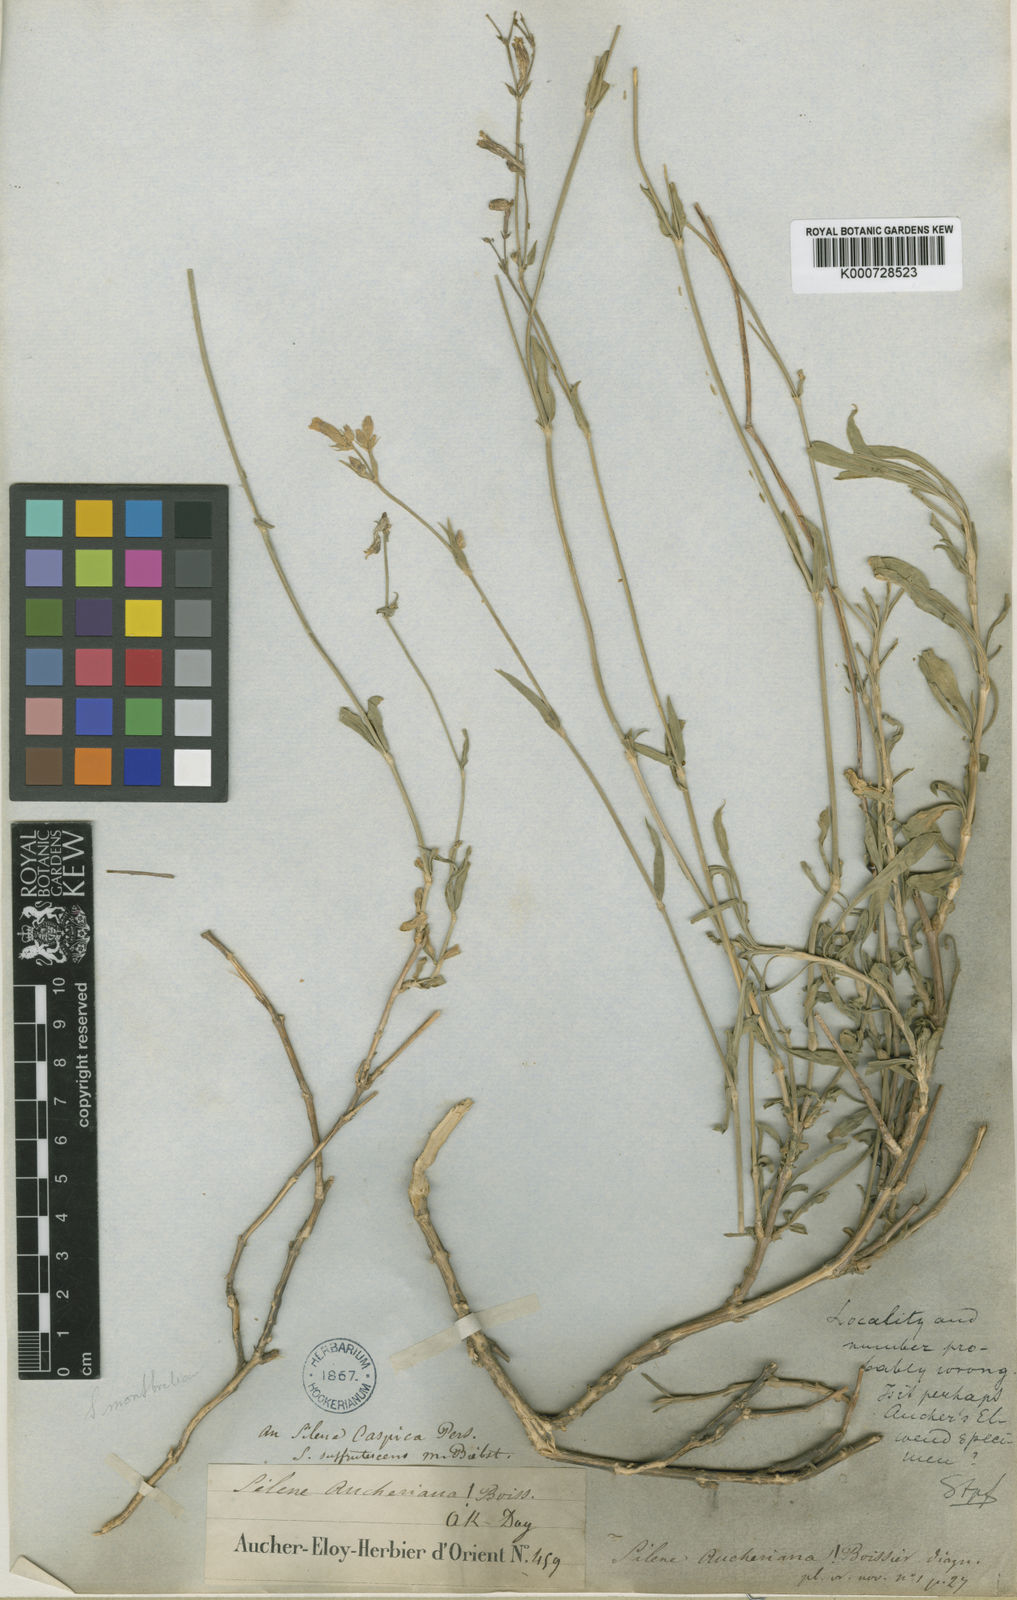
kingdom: Plantae
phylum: Tracheophyta
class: Magnoliopsida
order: Caryophyllales
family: Caryophyllaceae
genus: Silene
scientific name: Silene aucheriana
